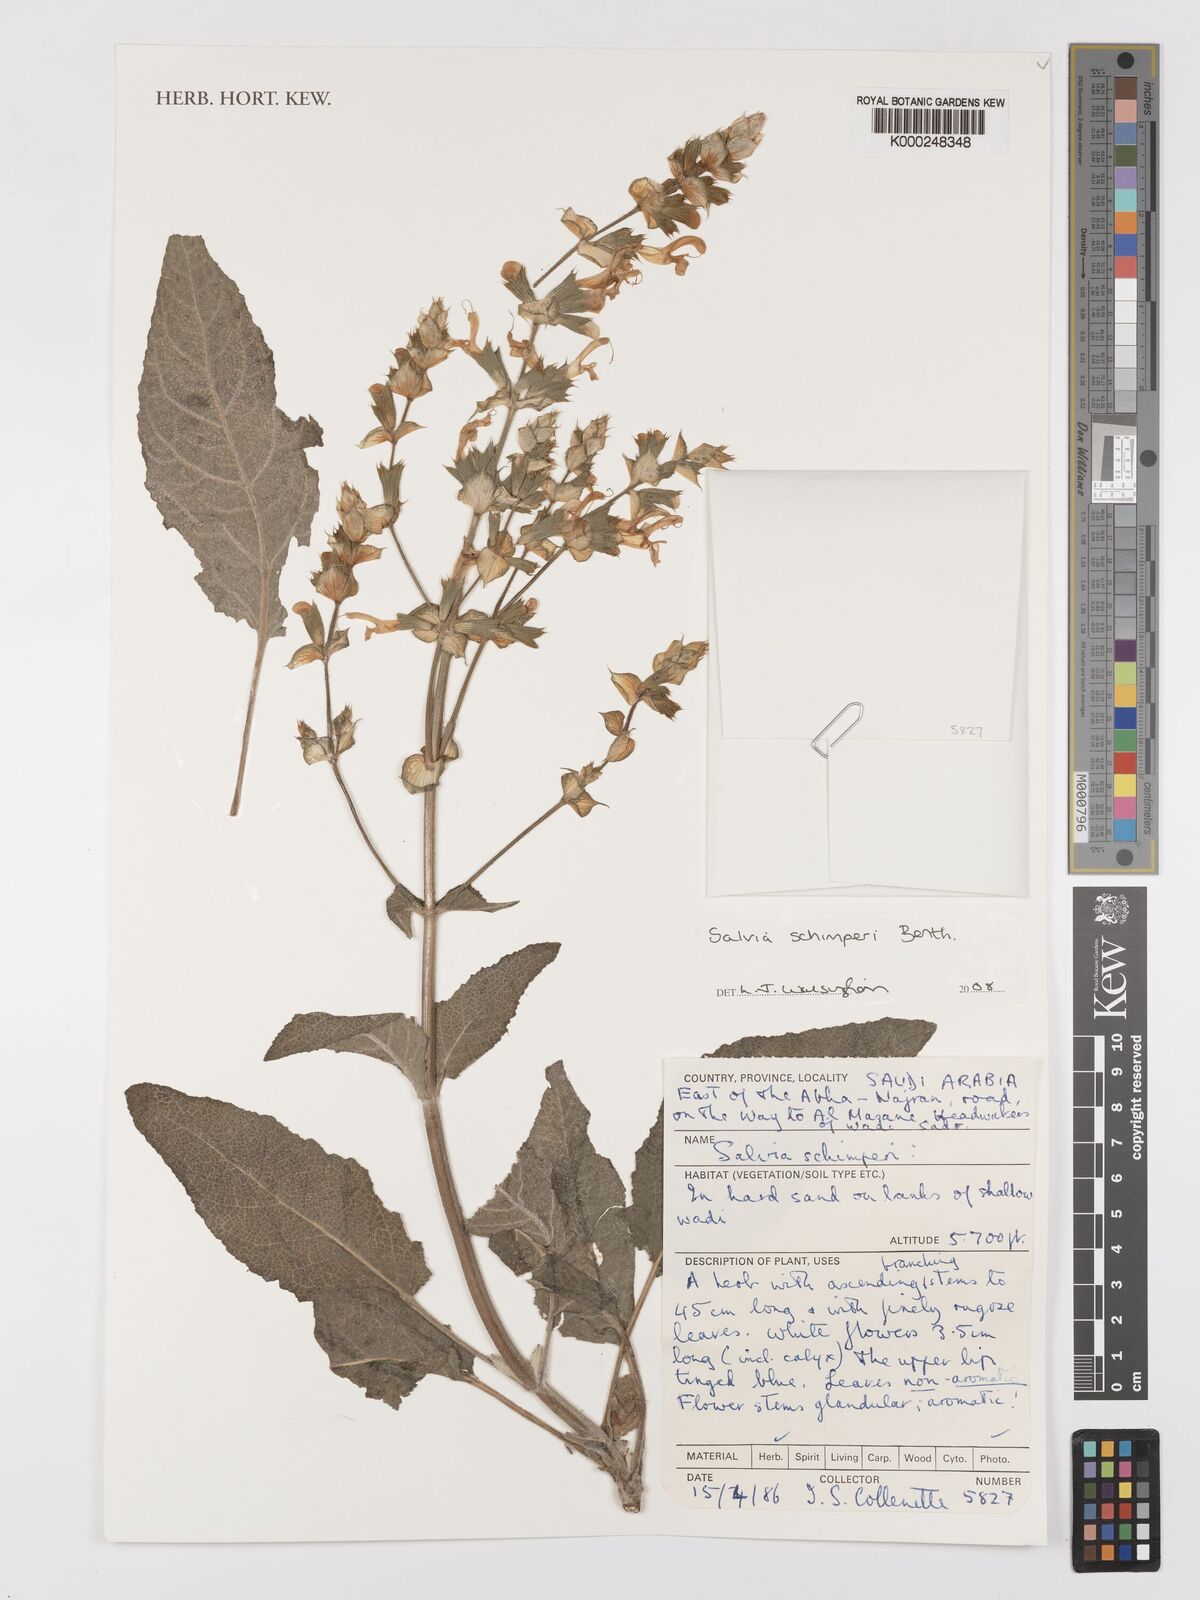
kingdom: Plantae
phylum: Tracheophyta
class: Magnoliopsida
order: Lamiales
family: Lamiaceae
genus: Salvia
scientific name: Salvia schimperi
